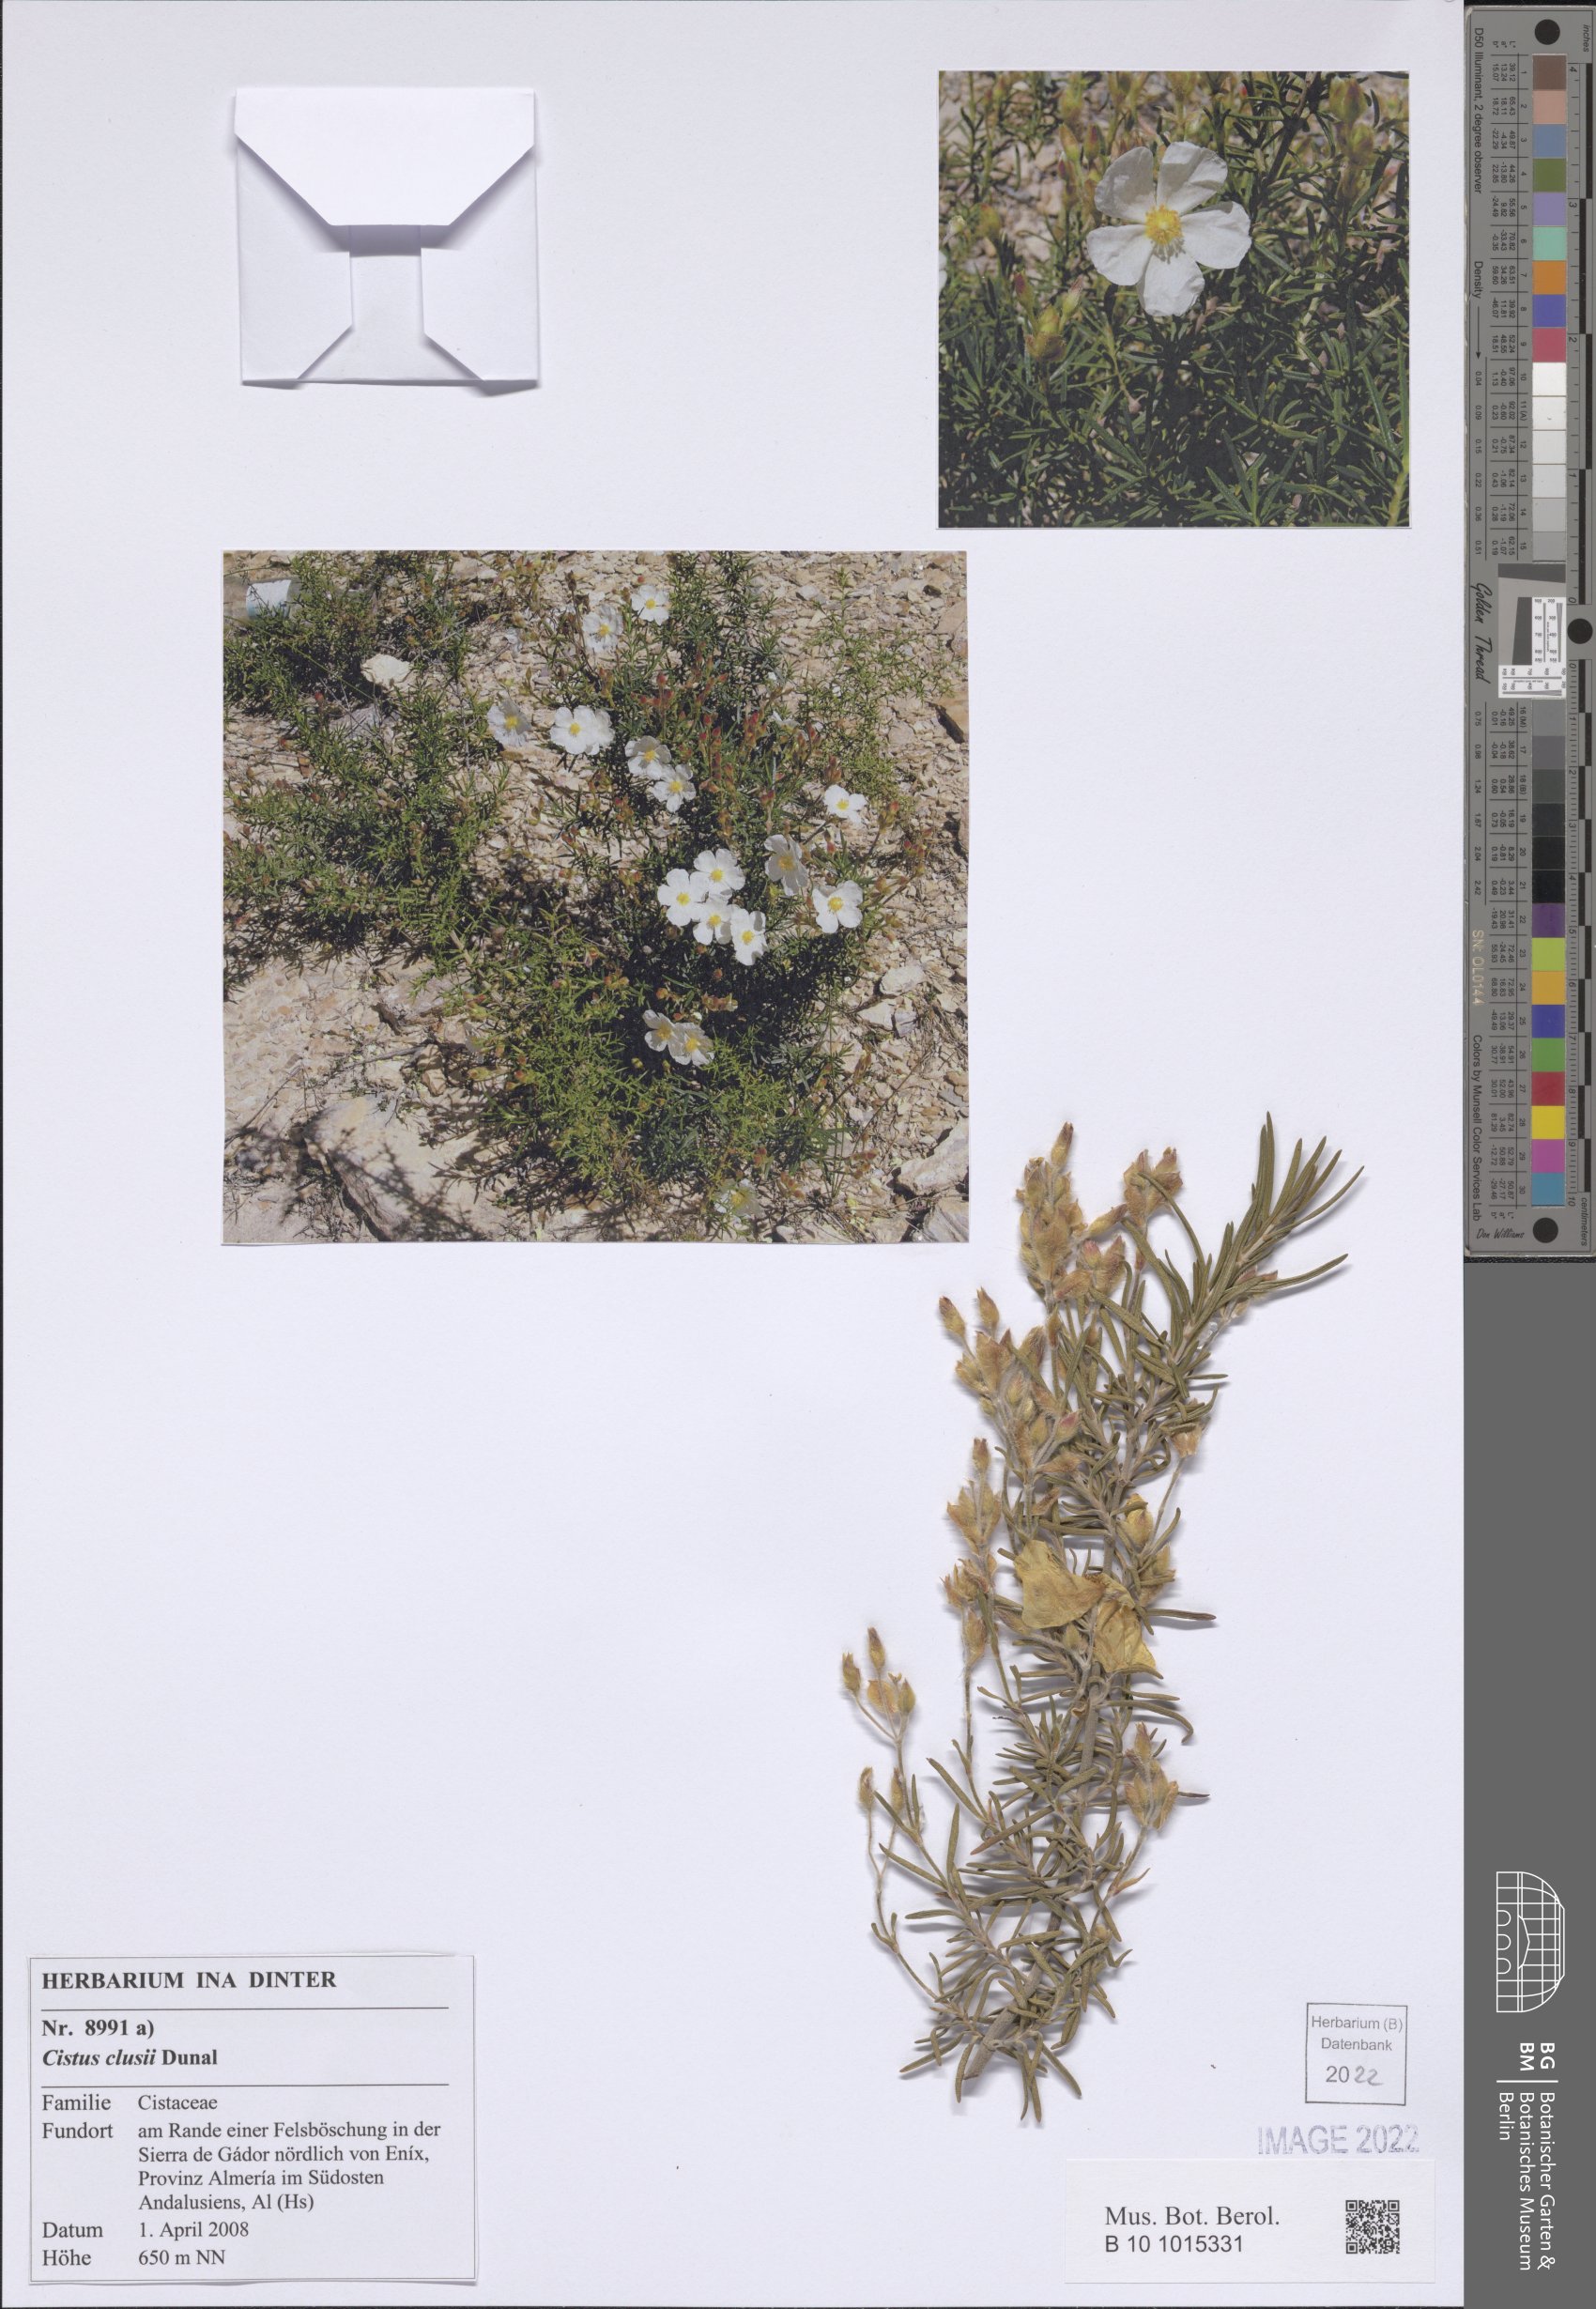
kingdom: Plantae
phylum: Tracheophyta
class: Magnoliopsida
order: Malvales
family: Cistaceae
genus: Cistus
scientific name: Cistus clusii
